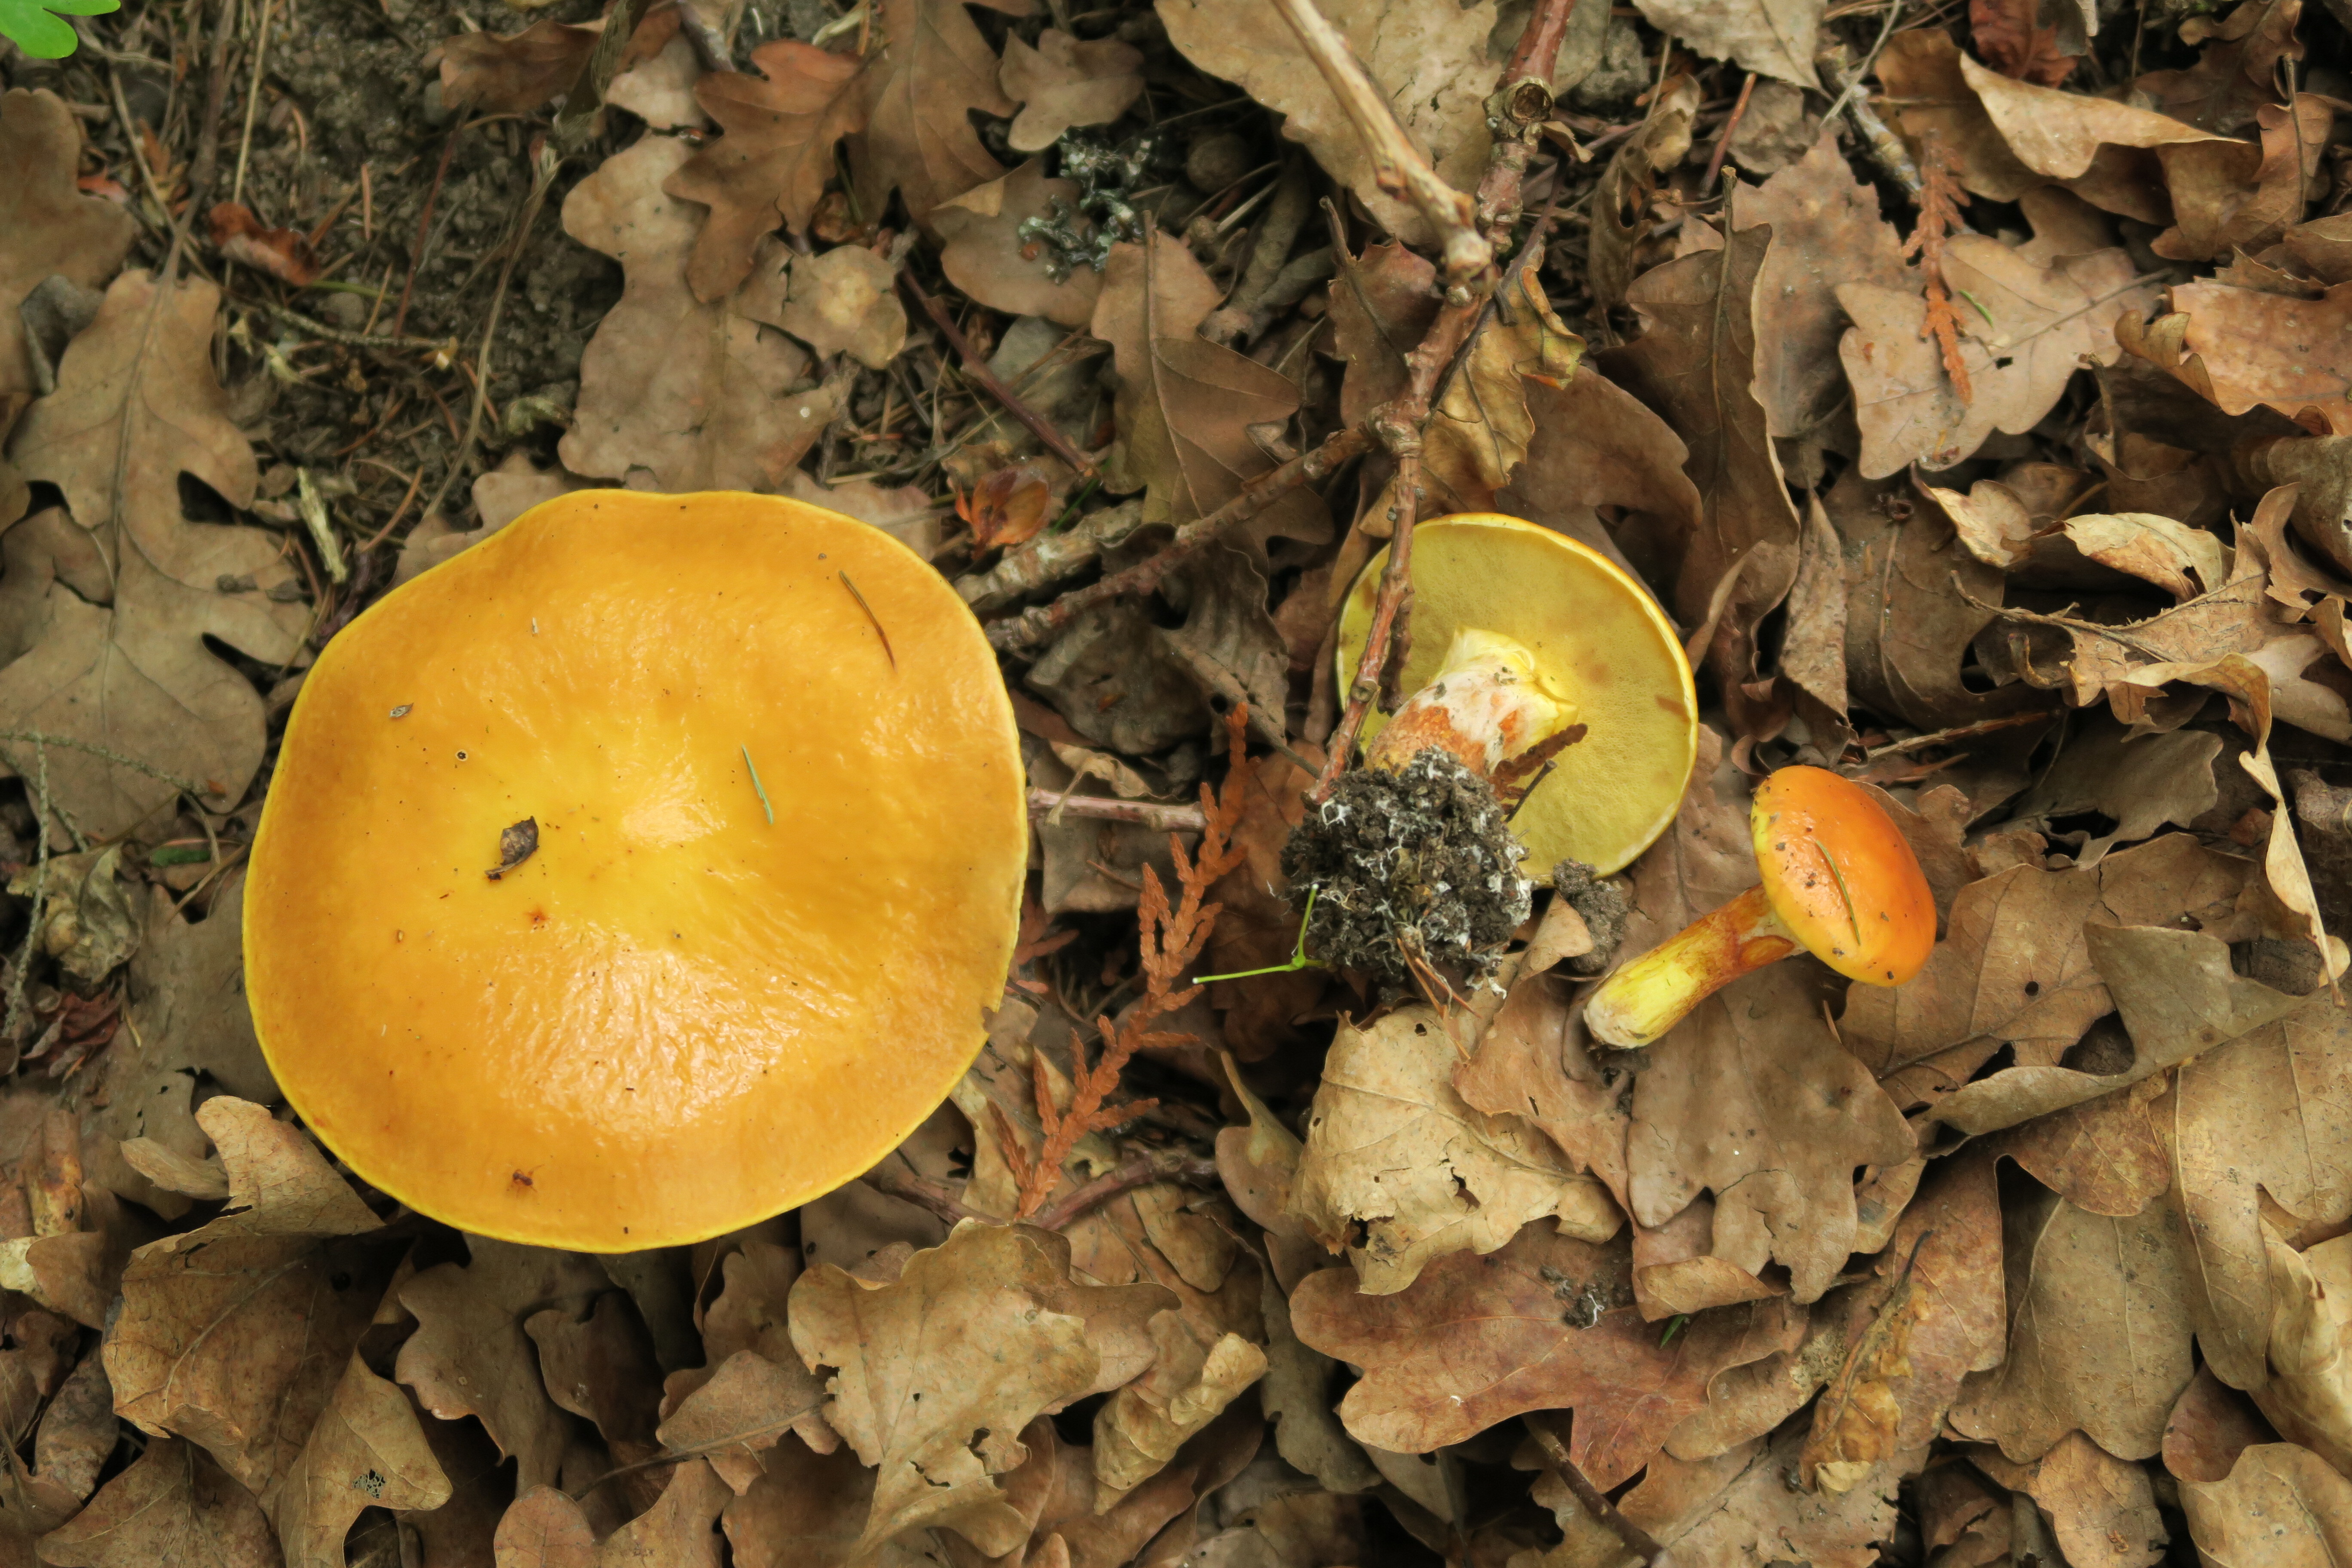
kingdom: Fungi
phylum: Basidiomycota
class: Agaricomycetes
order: Boletales
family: Suillaceae
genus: Suillus
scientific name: Suillus grevillei
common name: Larch bolete
